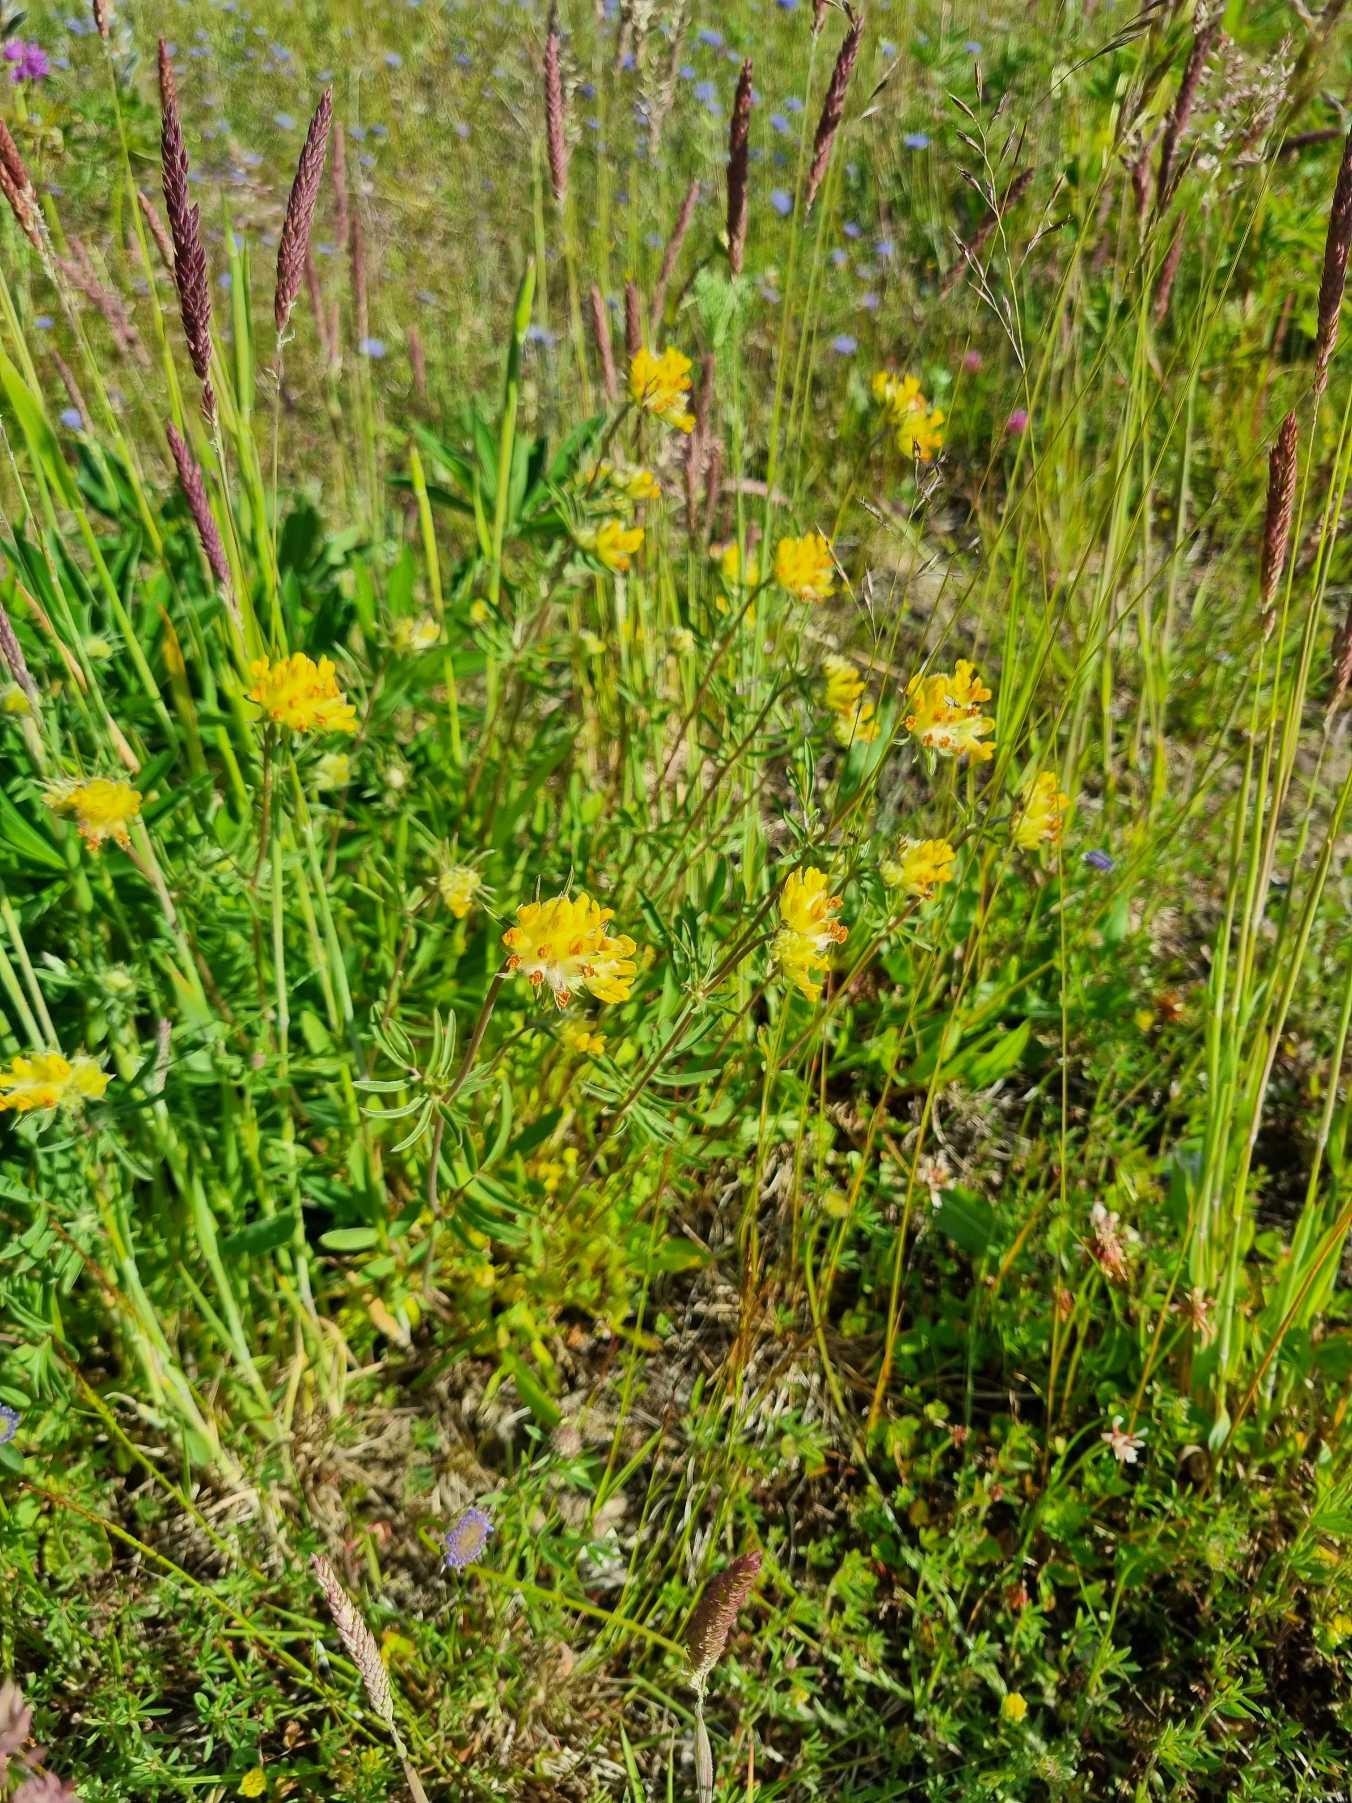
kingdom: Plantae
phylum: Tracheophyta
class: Magnoliopsida
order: Fabales
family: Fabaceae
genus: Anthyllis
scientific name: Anthyllis vulneraria
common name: Rundbælg
